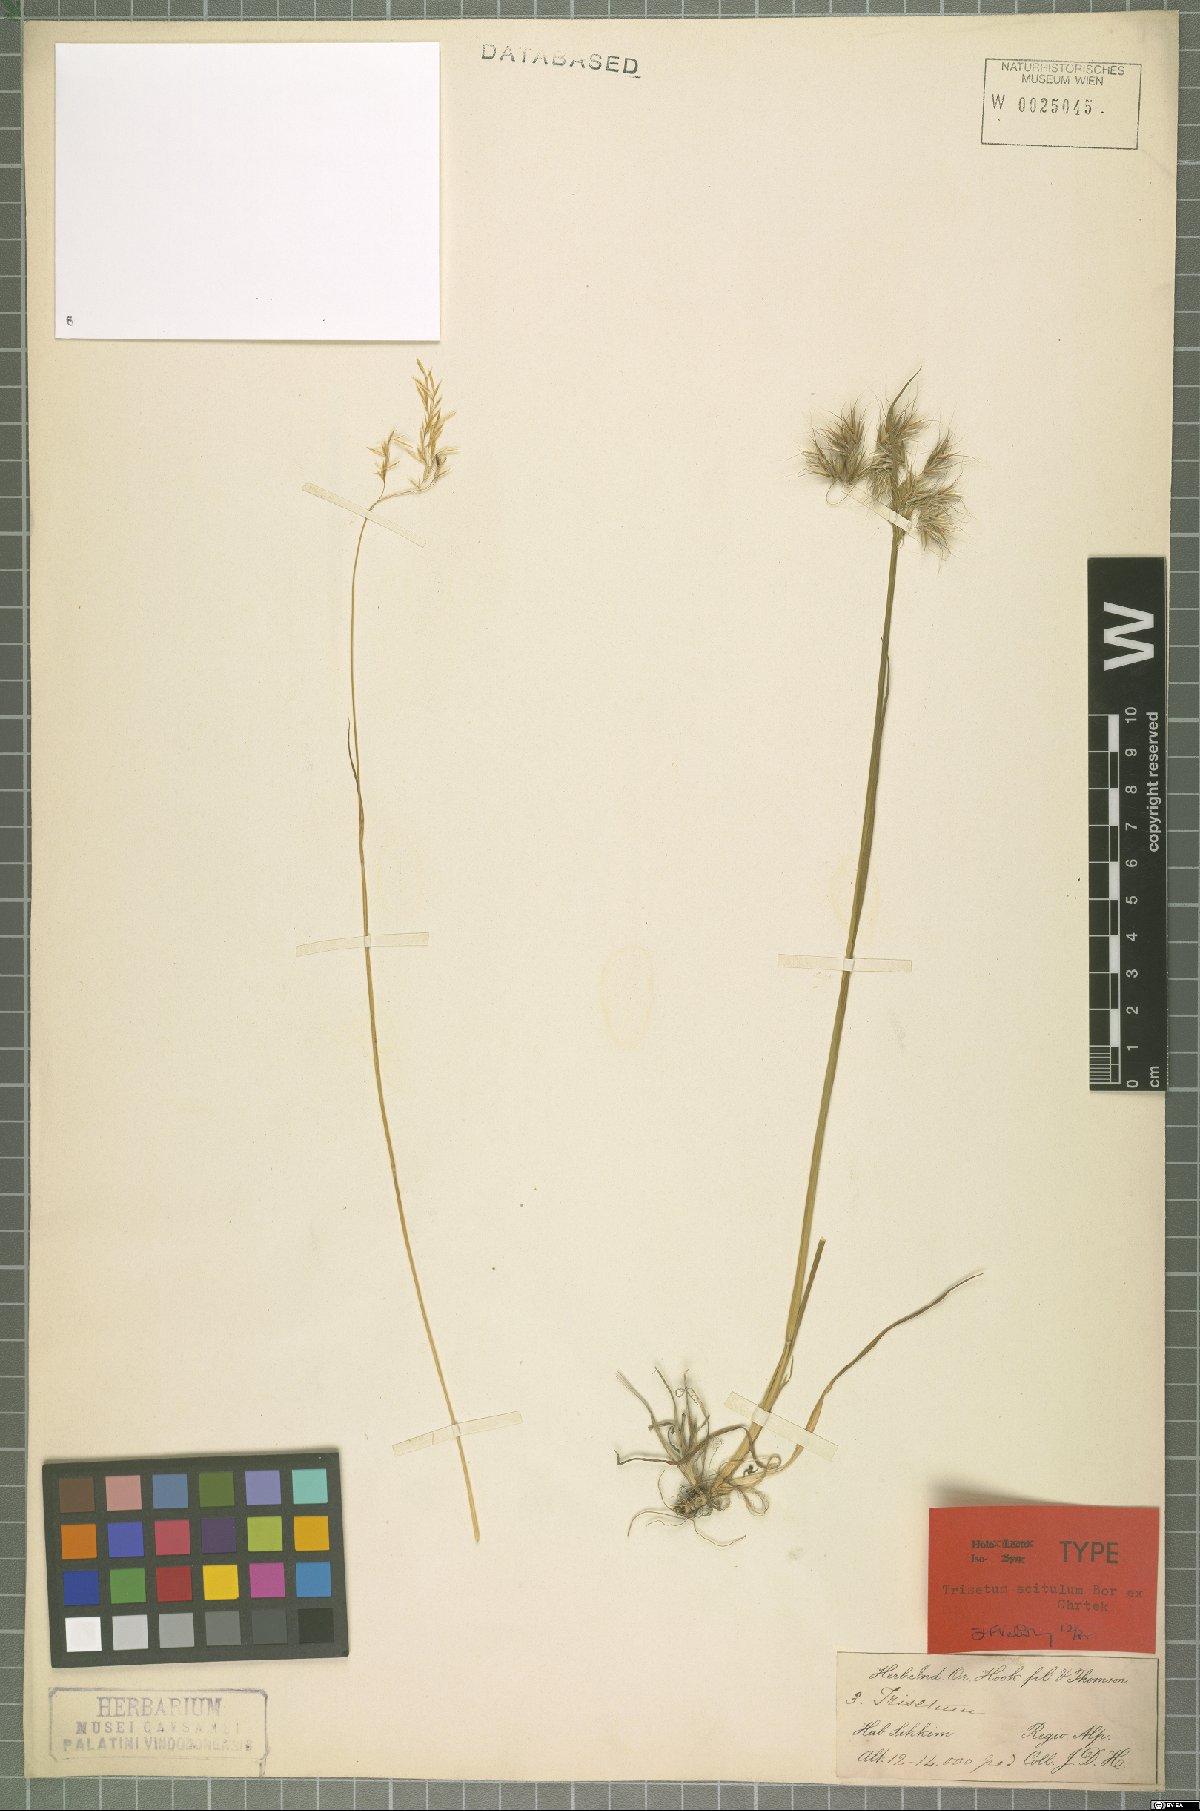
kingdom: Plantae
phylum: Tracheophyta
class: Liliopsida
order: Poales
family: Poaceae
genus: Sibirotrisetum
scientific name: Sibirotrisetum scitulum
